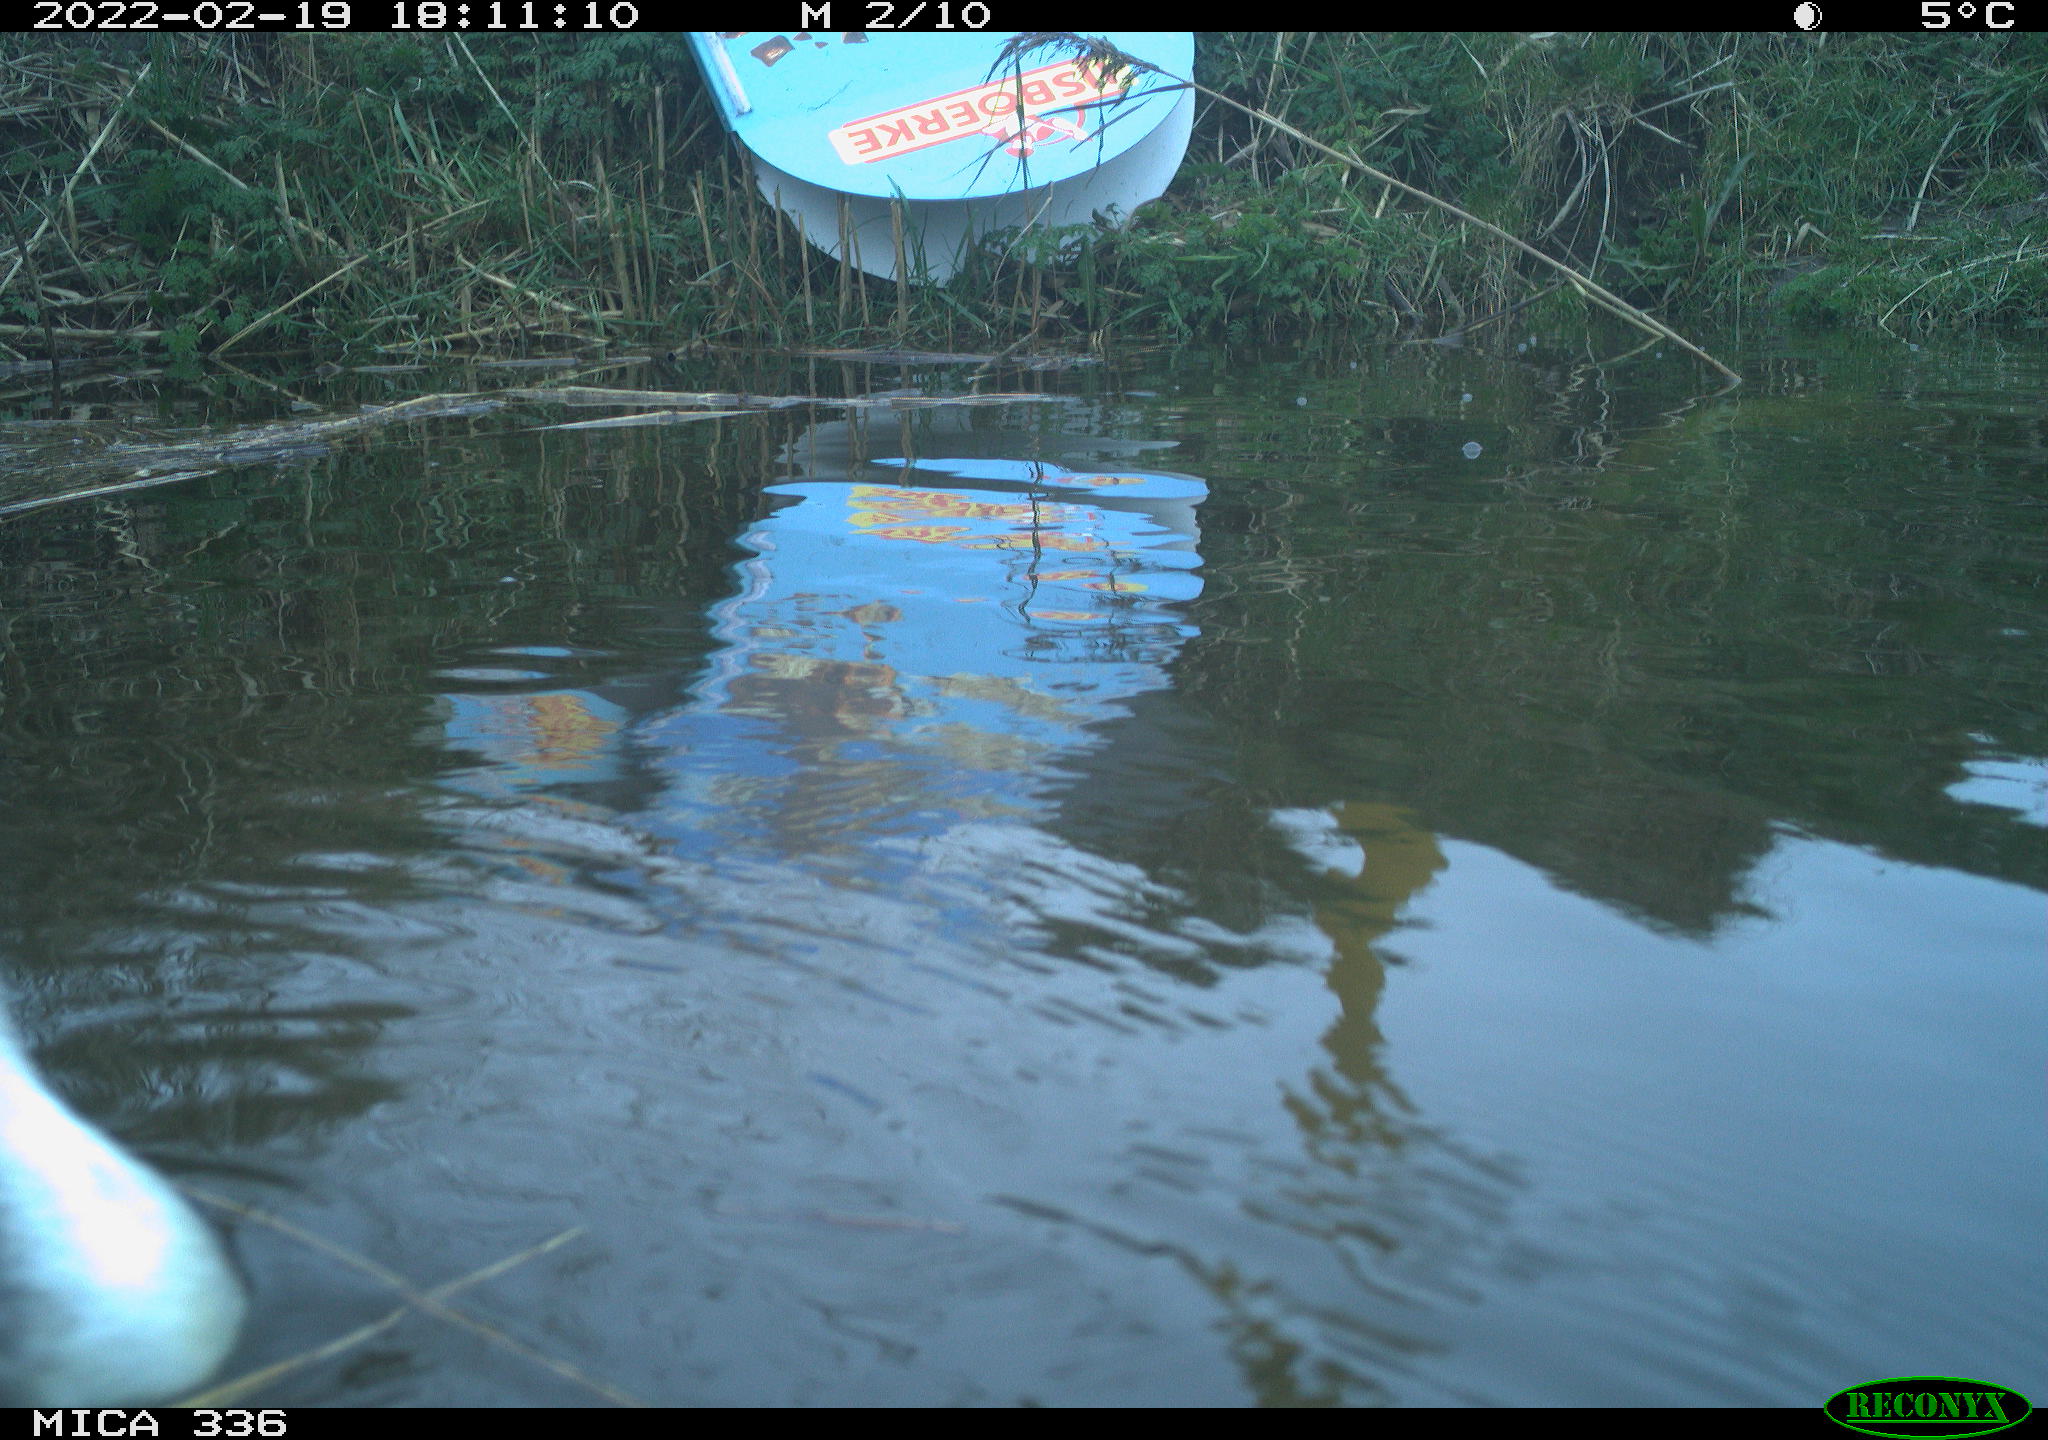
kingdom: Animalia
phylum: Chordata
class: Aves
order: Podicipediformes
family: Podicipedidae
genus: Podiceps
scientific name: Podiceps cristatus
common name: Great crested grebe
